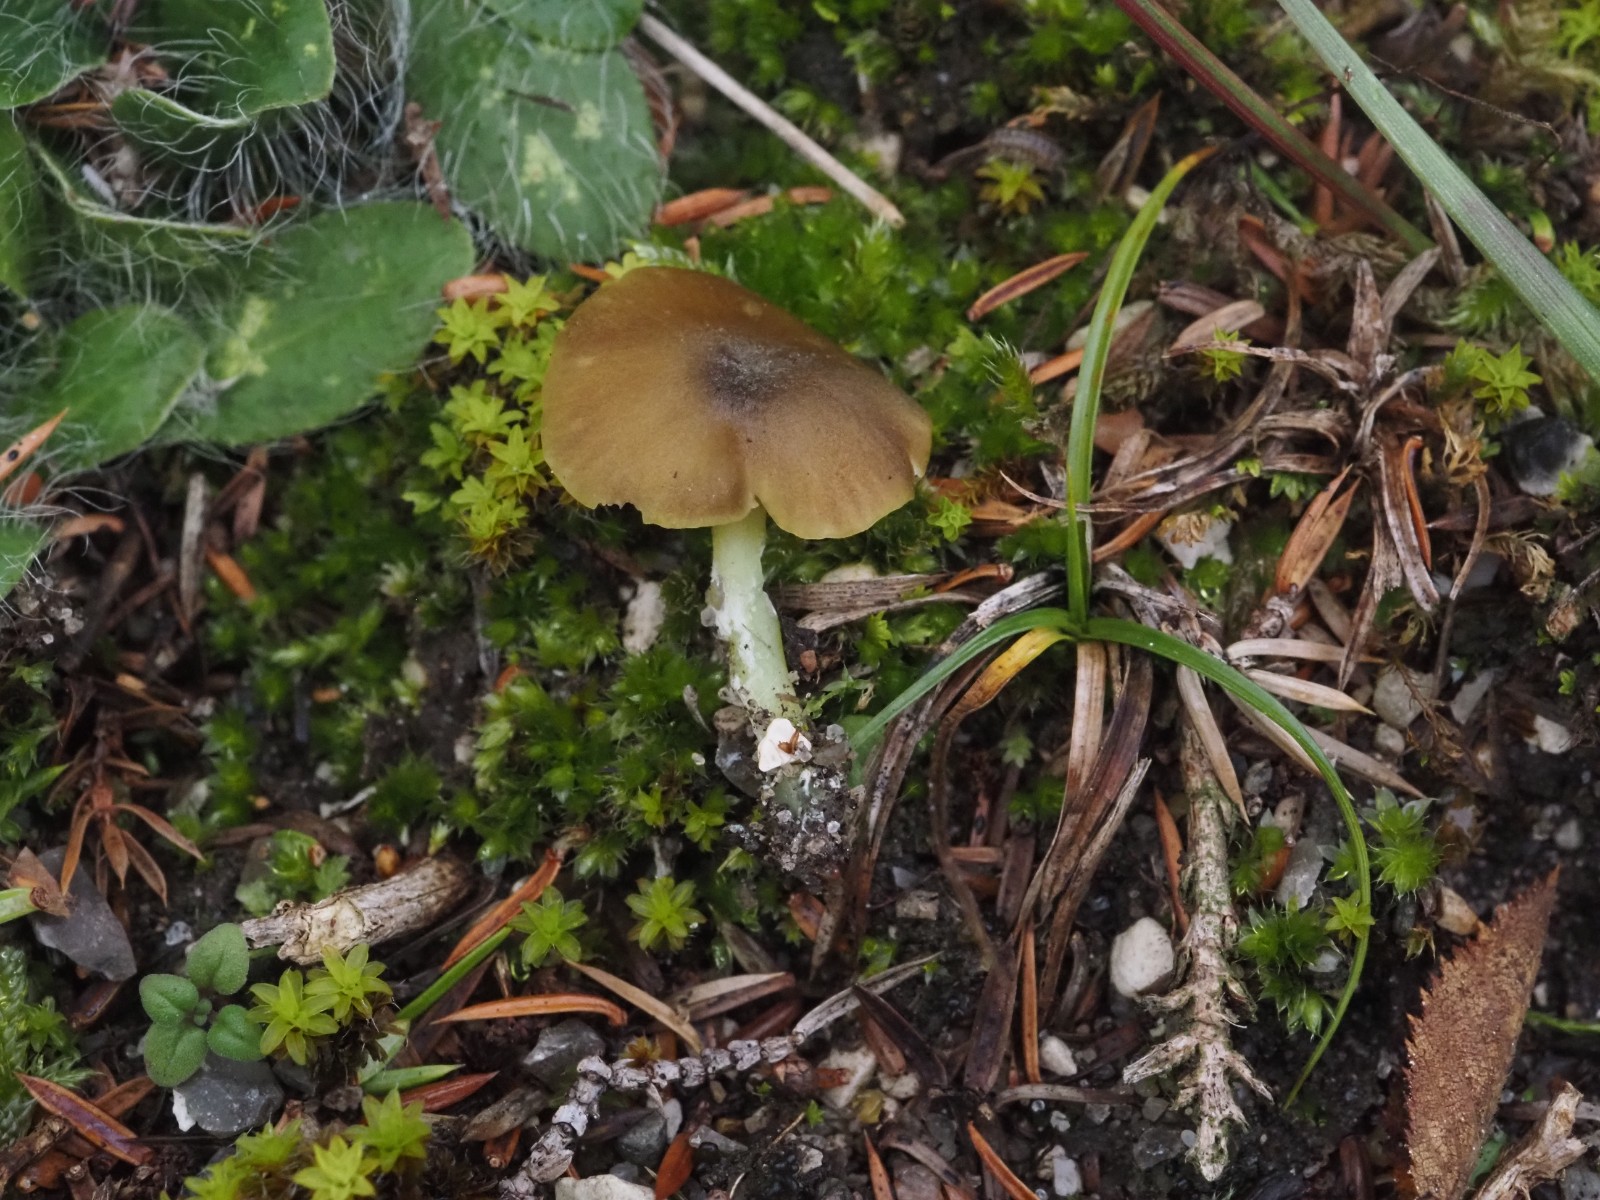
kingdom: Fungi
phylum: Basidiomycota
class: Agaricomycetes
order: Agaricales
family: Entolomataceae
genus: Entoloma
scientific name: Entoloma incanum
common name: grøngul rødblad
